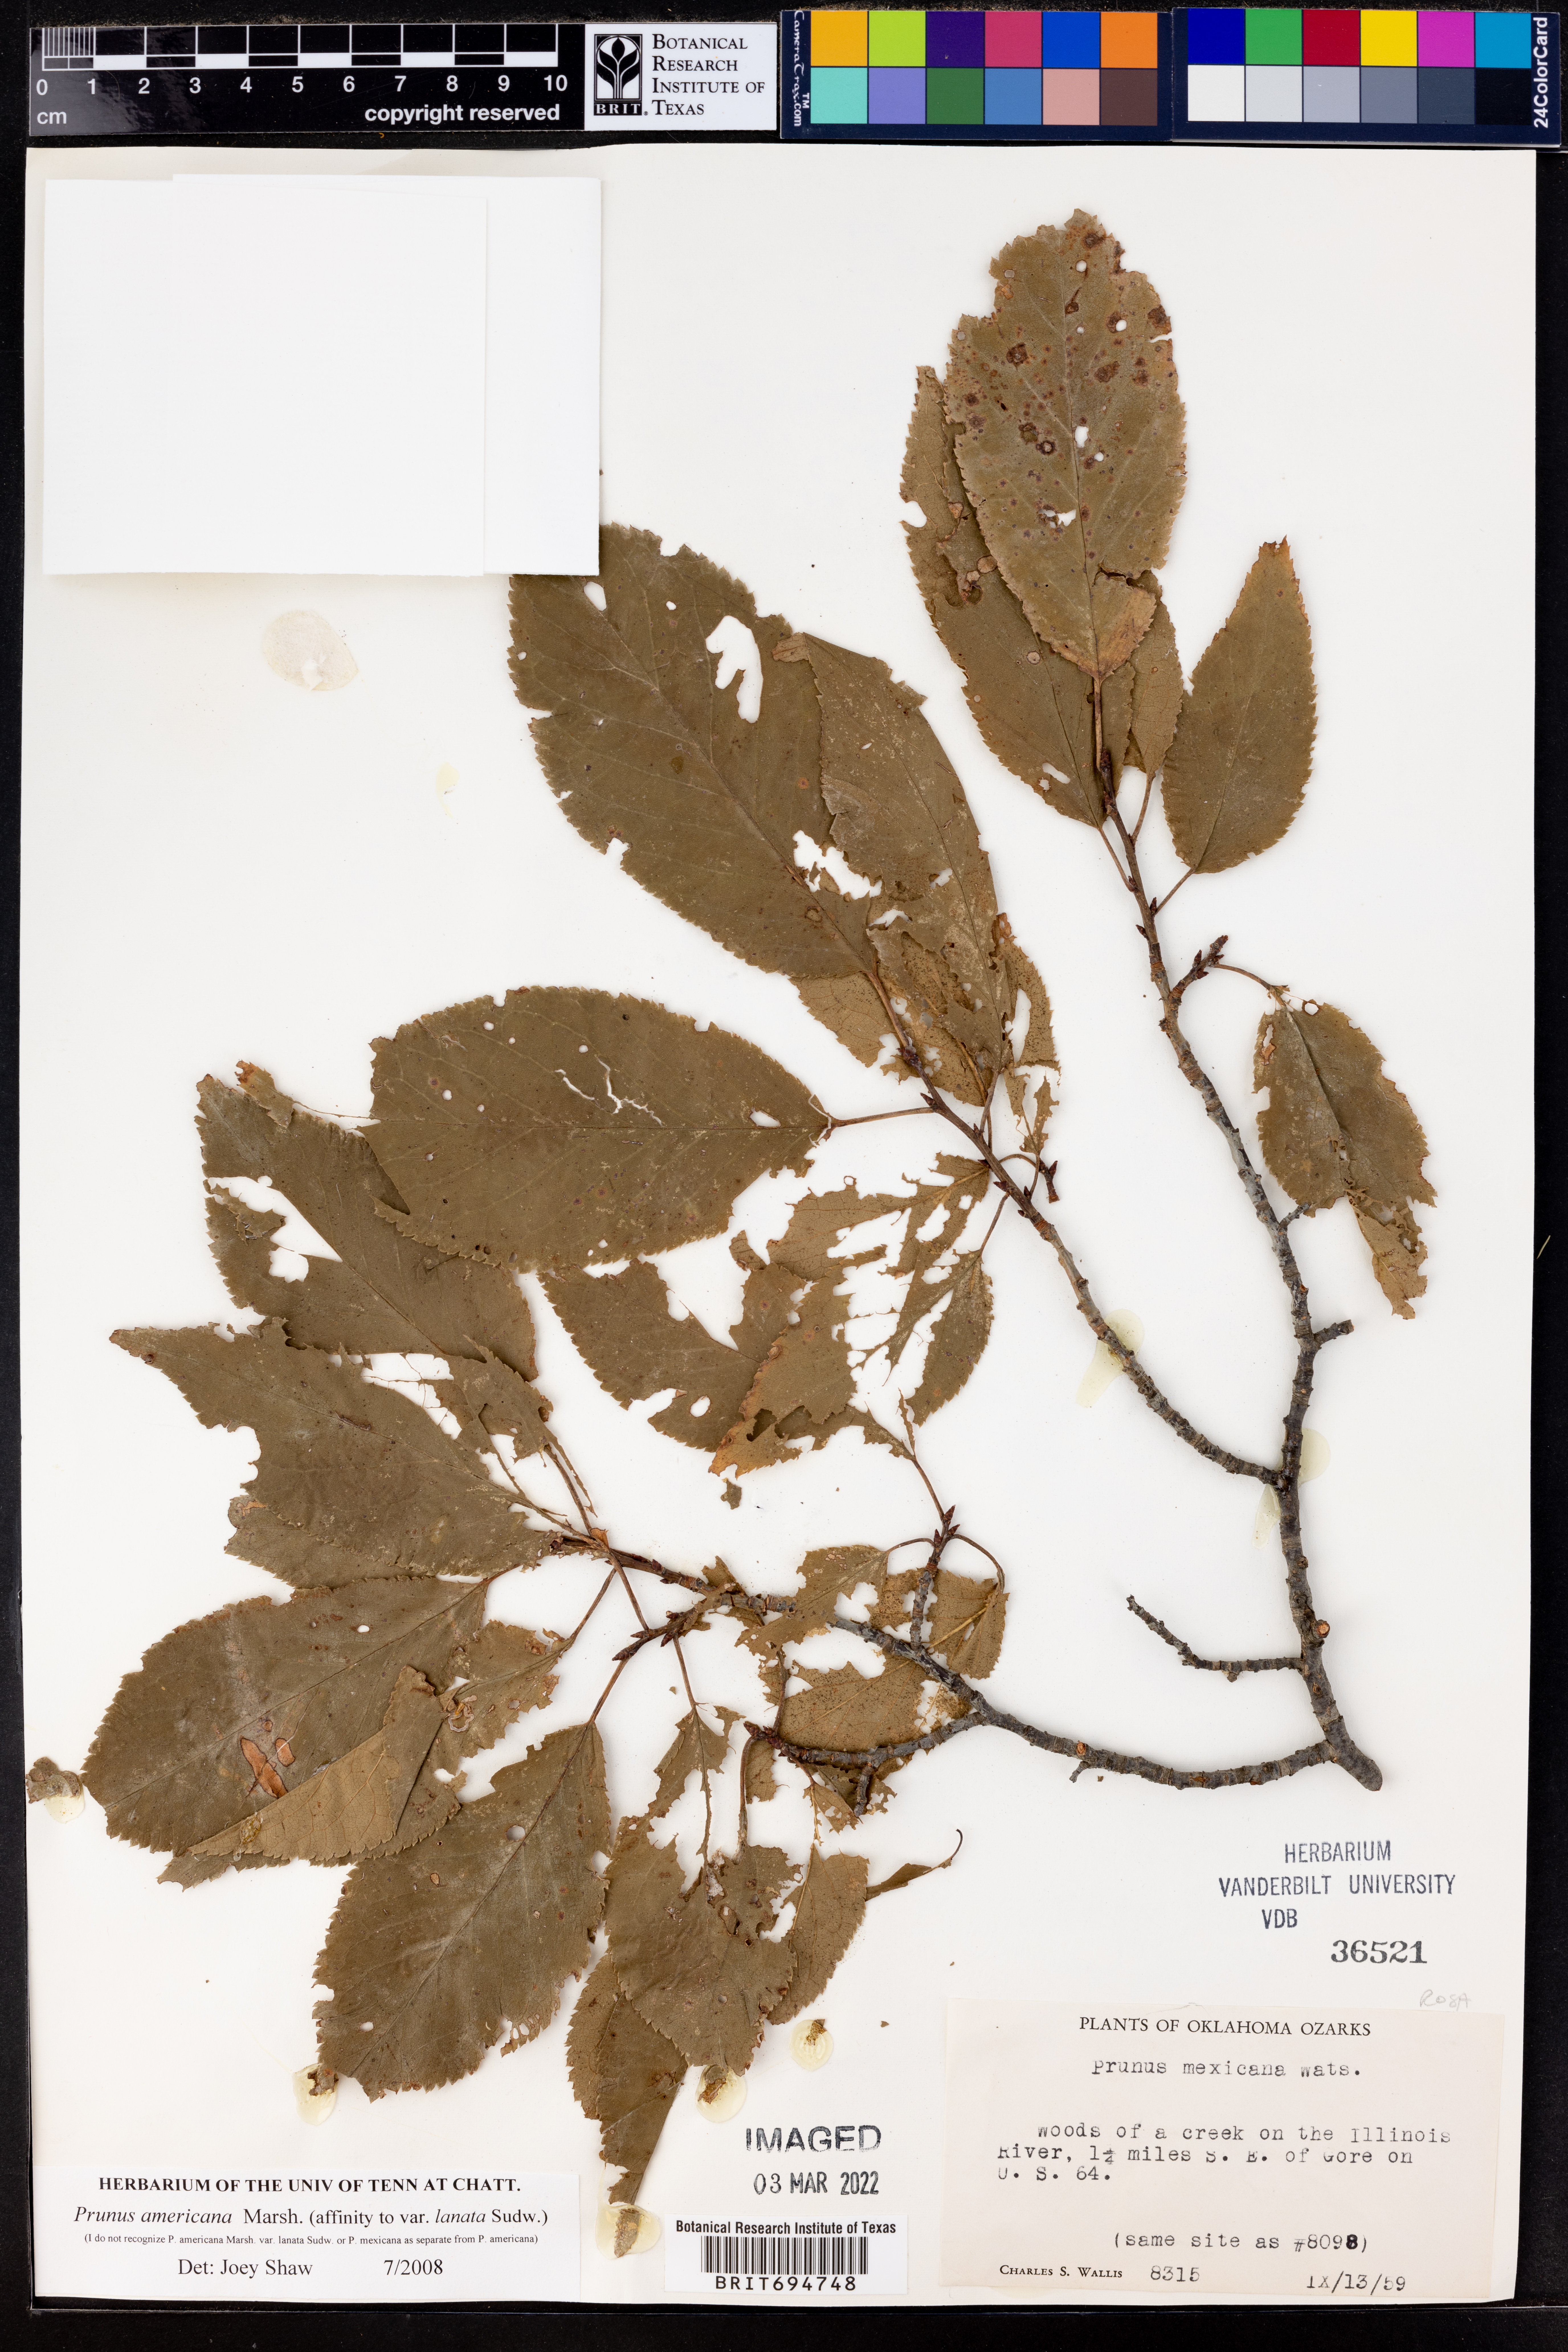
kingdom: Plantae
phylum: Tracheophyta
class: Magnoliopsida
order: Rosales
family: Rosaceae
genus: Sorbus
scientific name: Sorbus americana
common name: American mountain-ash
